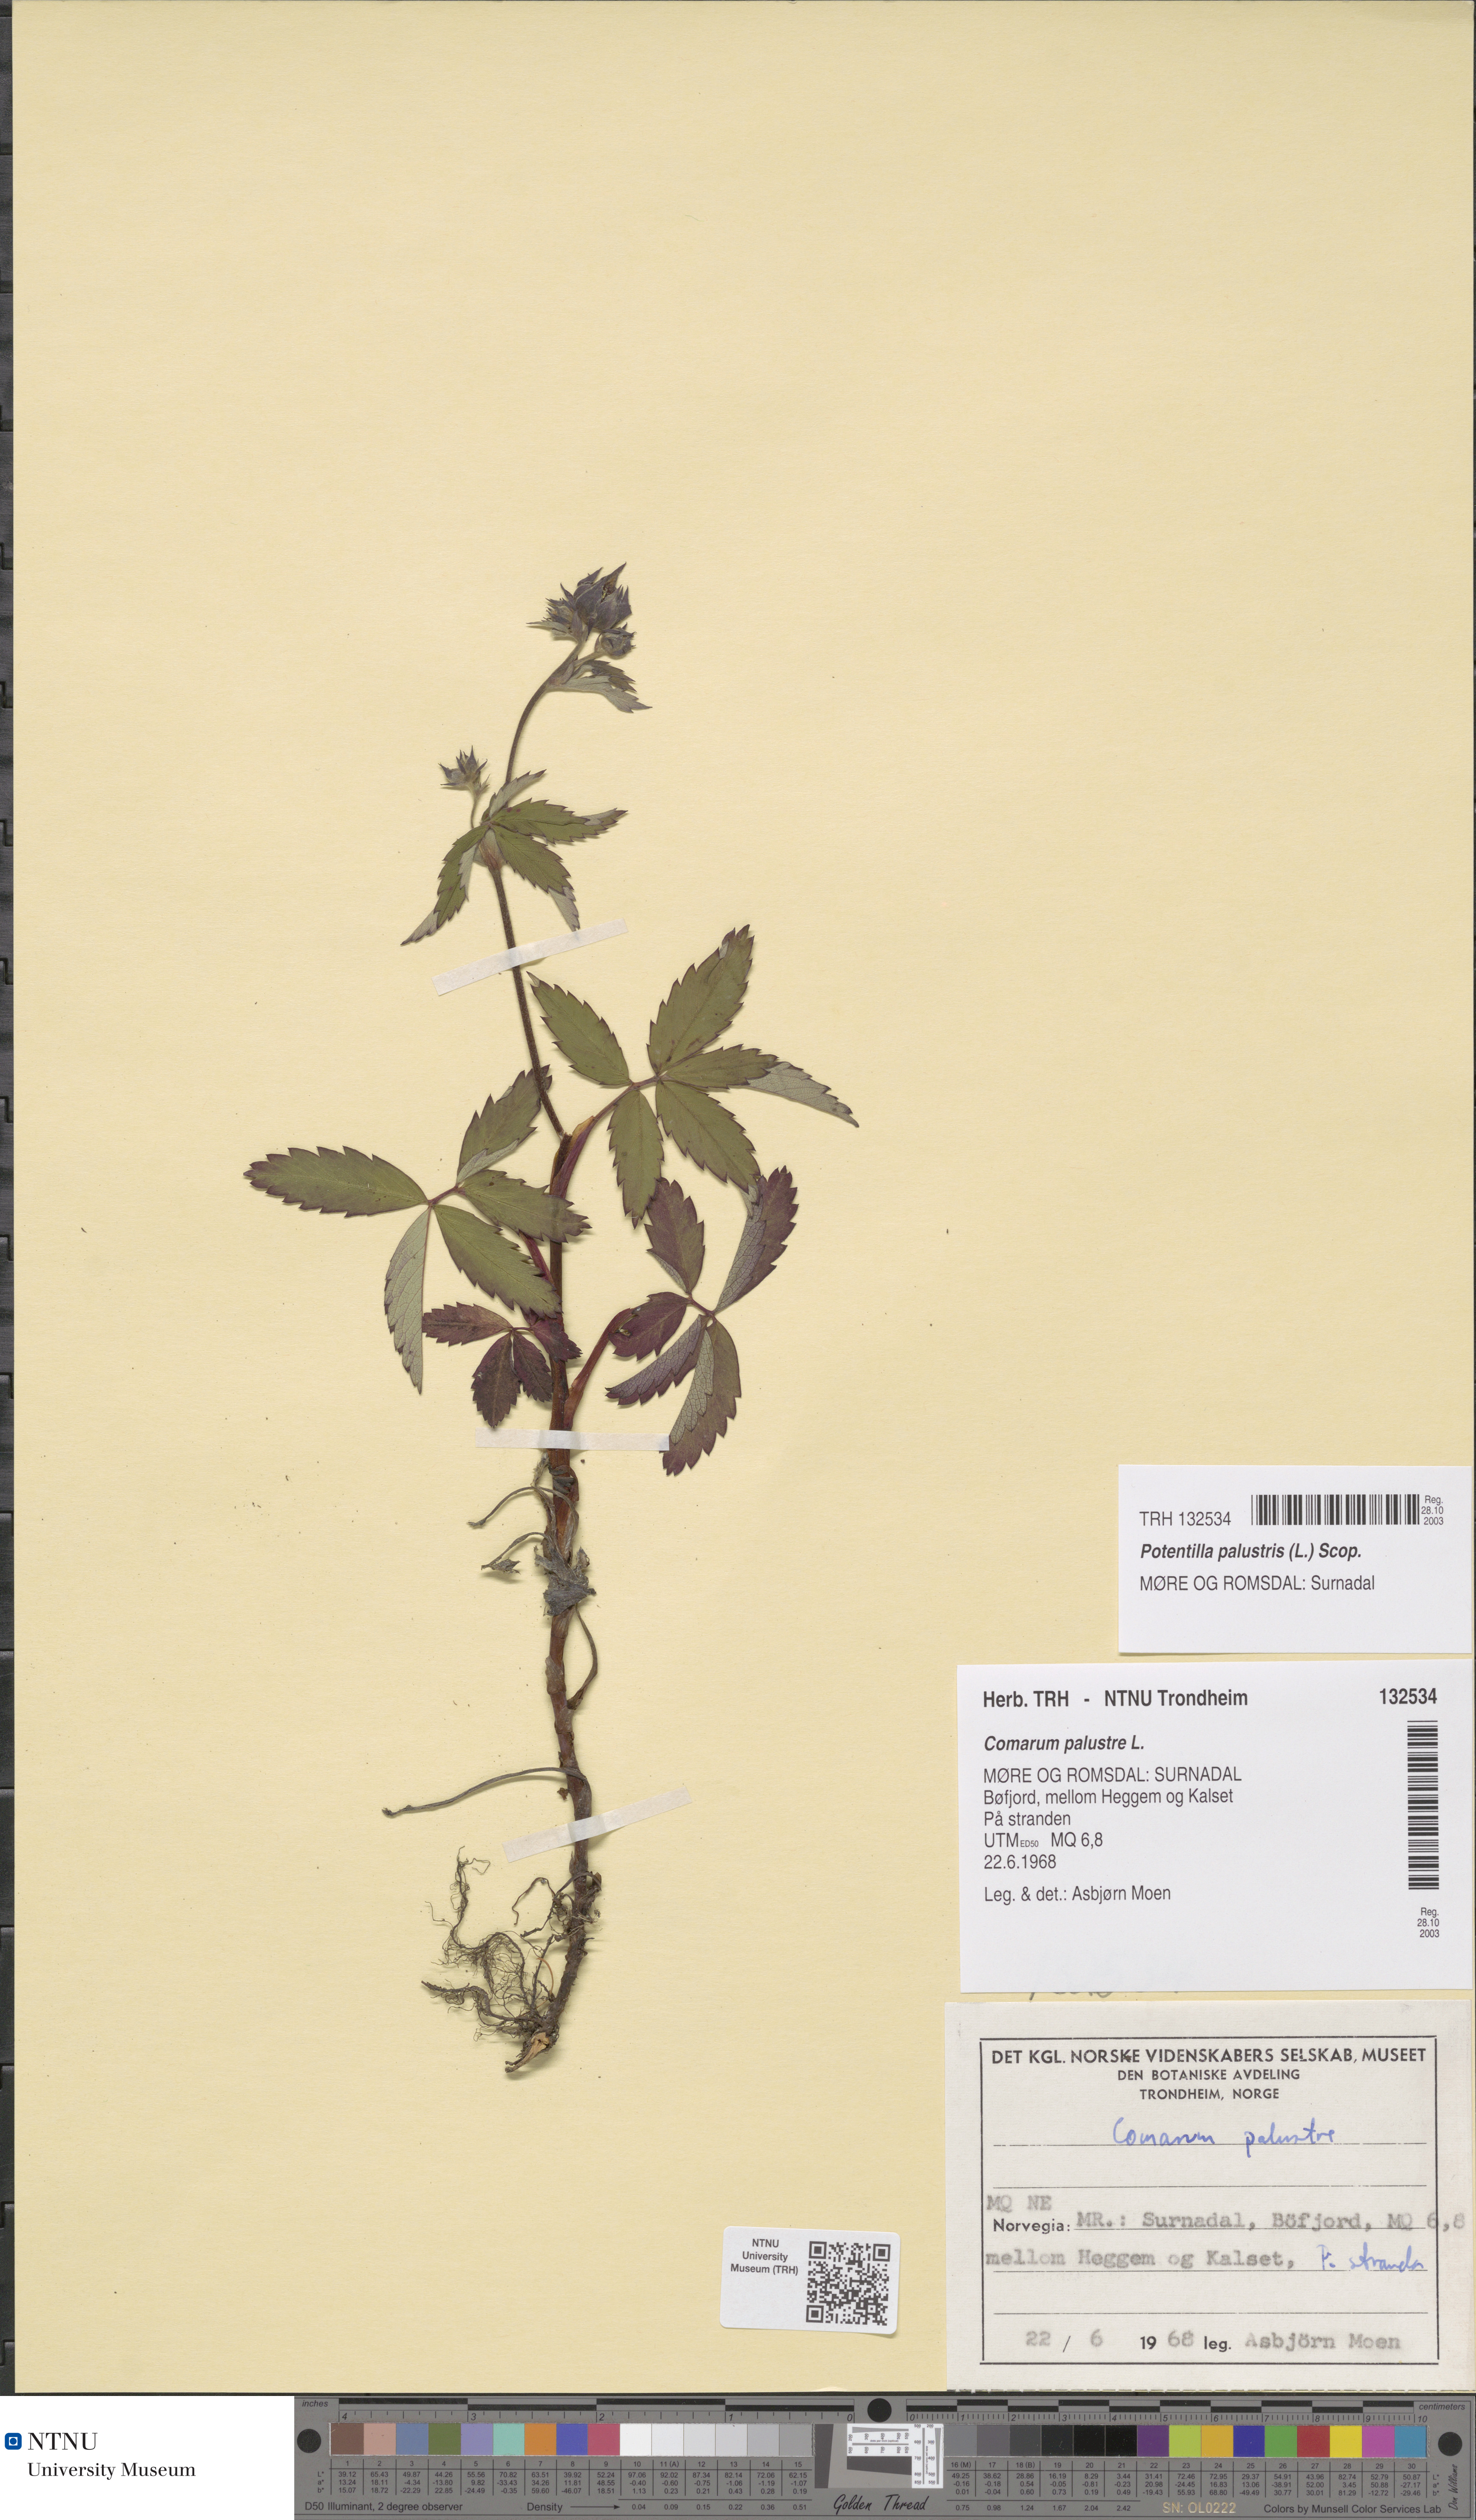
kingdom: Plantae
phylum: Tracheophyta
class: Magnoliopsida
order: Rosales
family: Rosaceae
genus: Comarum
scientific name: Comarum palustre
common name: Marsh cinquefoil
